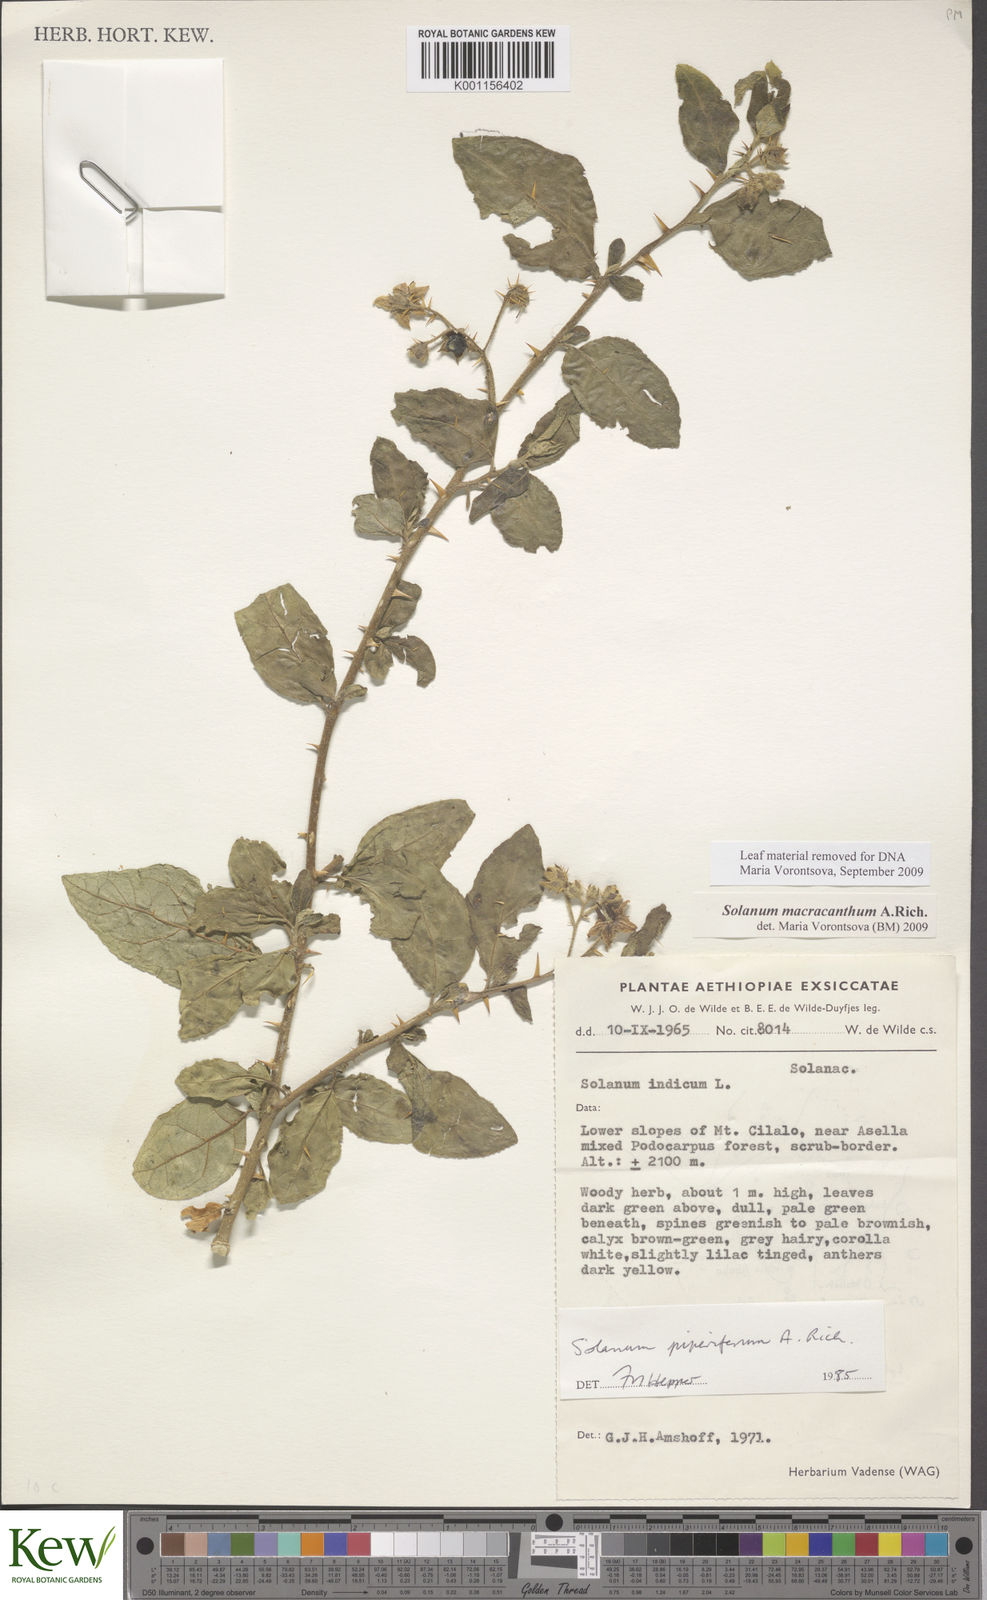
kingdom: Plantae
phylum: Tracheophyta
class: Magnoliopsida
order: Solanales
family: Solanaceae
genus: Solanum
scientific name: Solanum macracanthum
